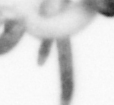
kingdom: Animalia
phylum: Arthropoda
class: Copepoda
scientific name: Copepoda
